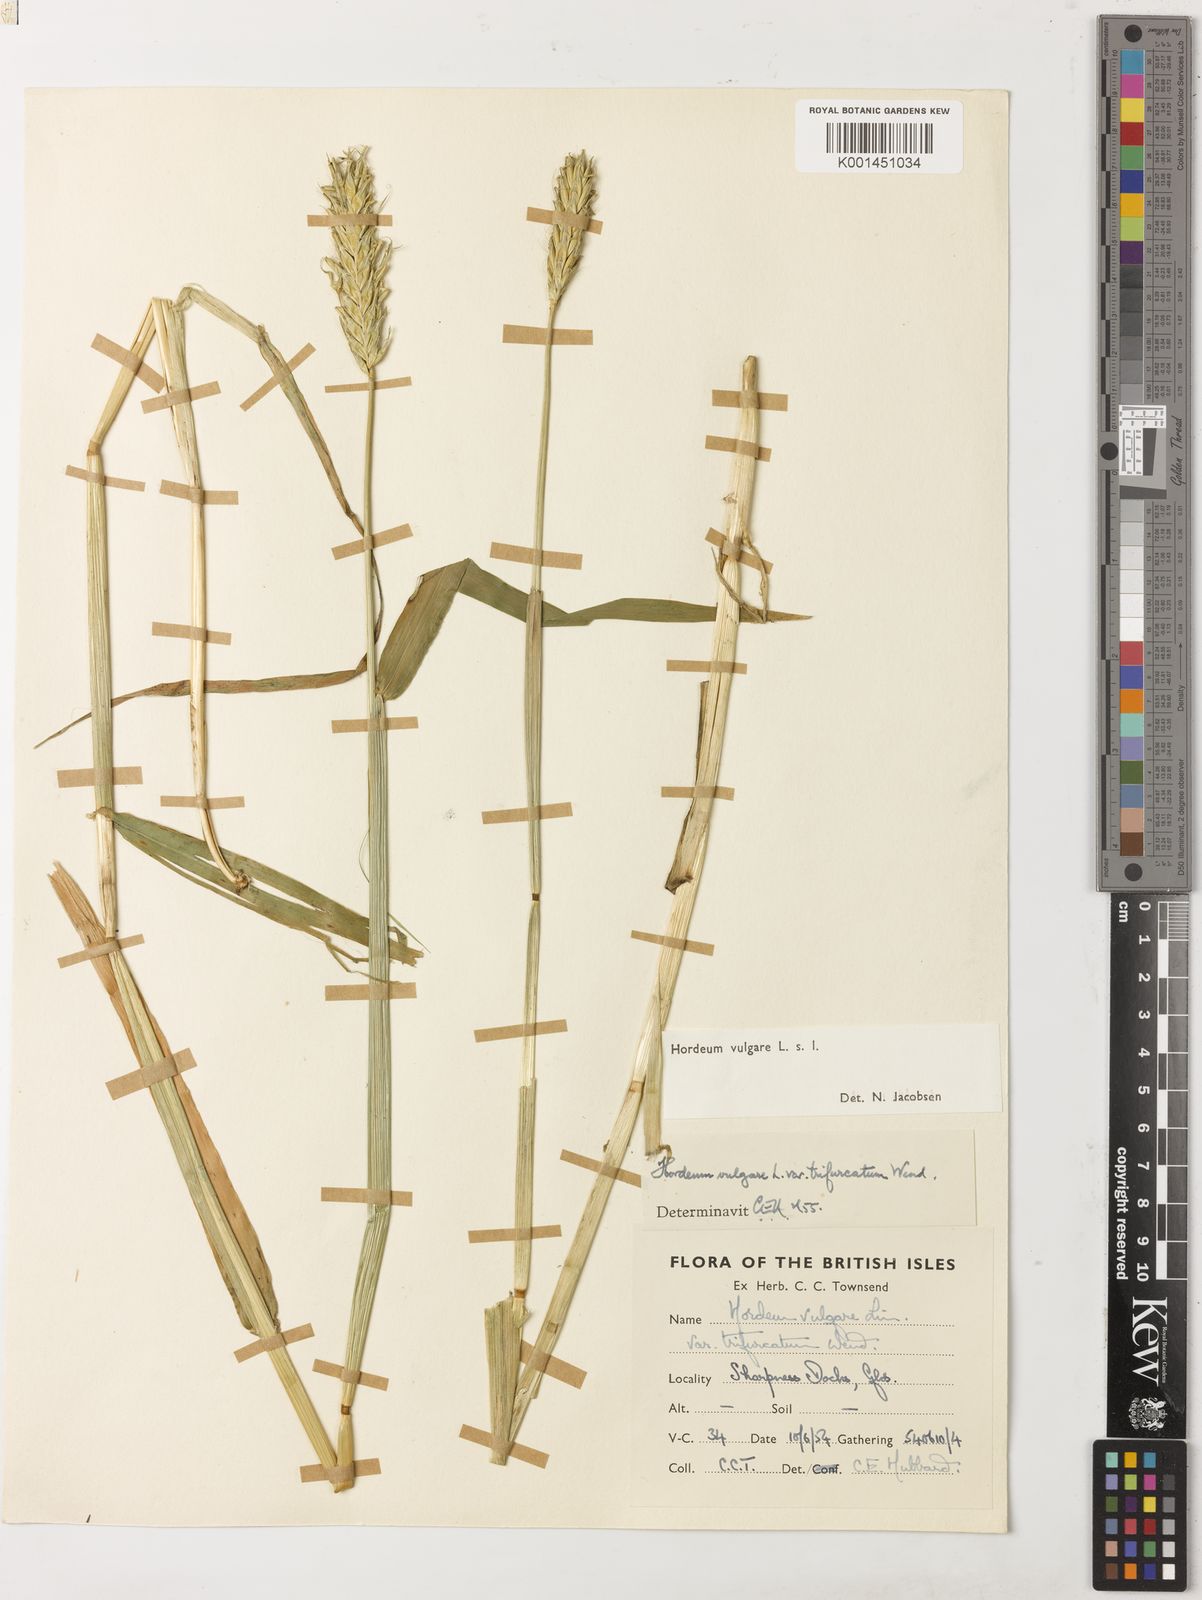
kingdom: Plantae
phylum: Tracheophyta
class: Liliopsida
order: Poales
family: Poaceae
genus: Hordeum
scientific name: Hordeum vulgare
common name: Common barley
